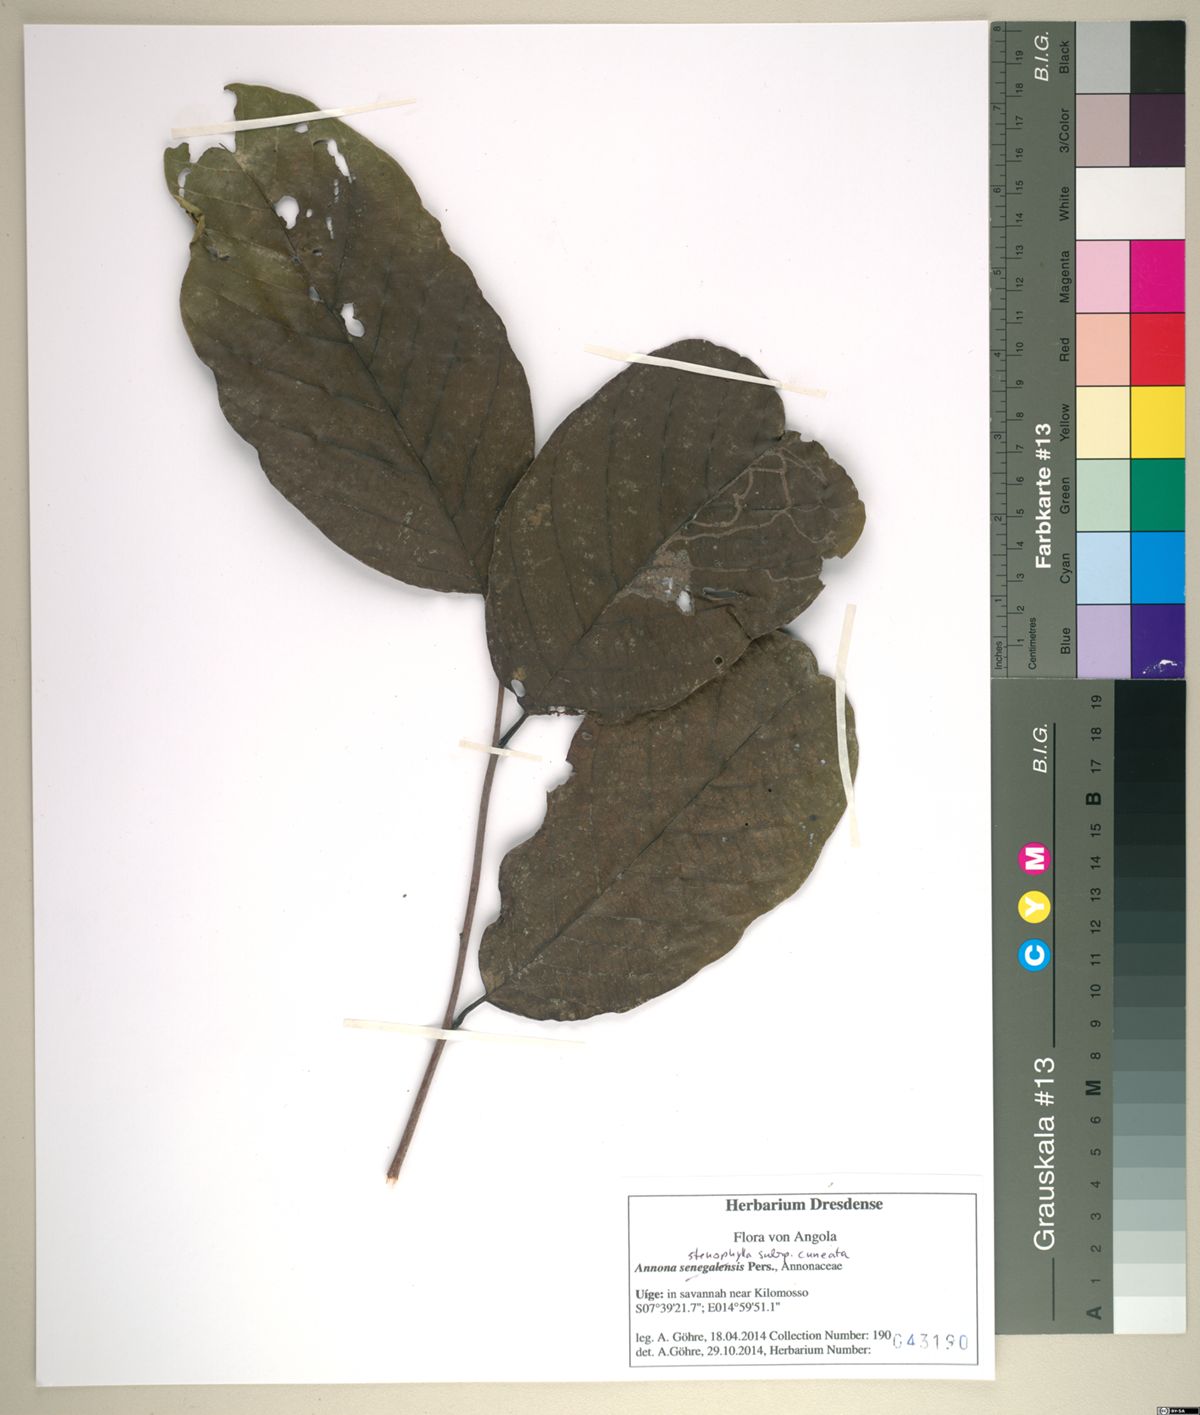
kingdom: Plantae
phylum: Tracheophyta
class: Magnoliopsida
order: Magnoliales
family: Annonaceae
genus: Annona
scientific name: Annona stenophylla
